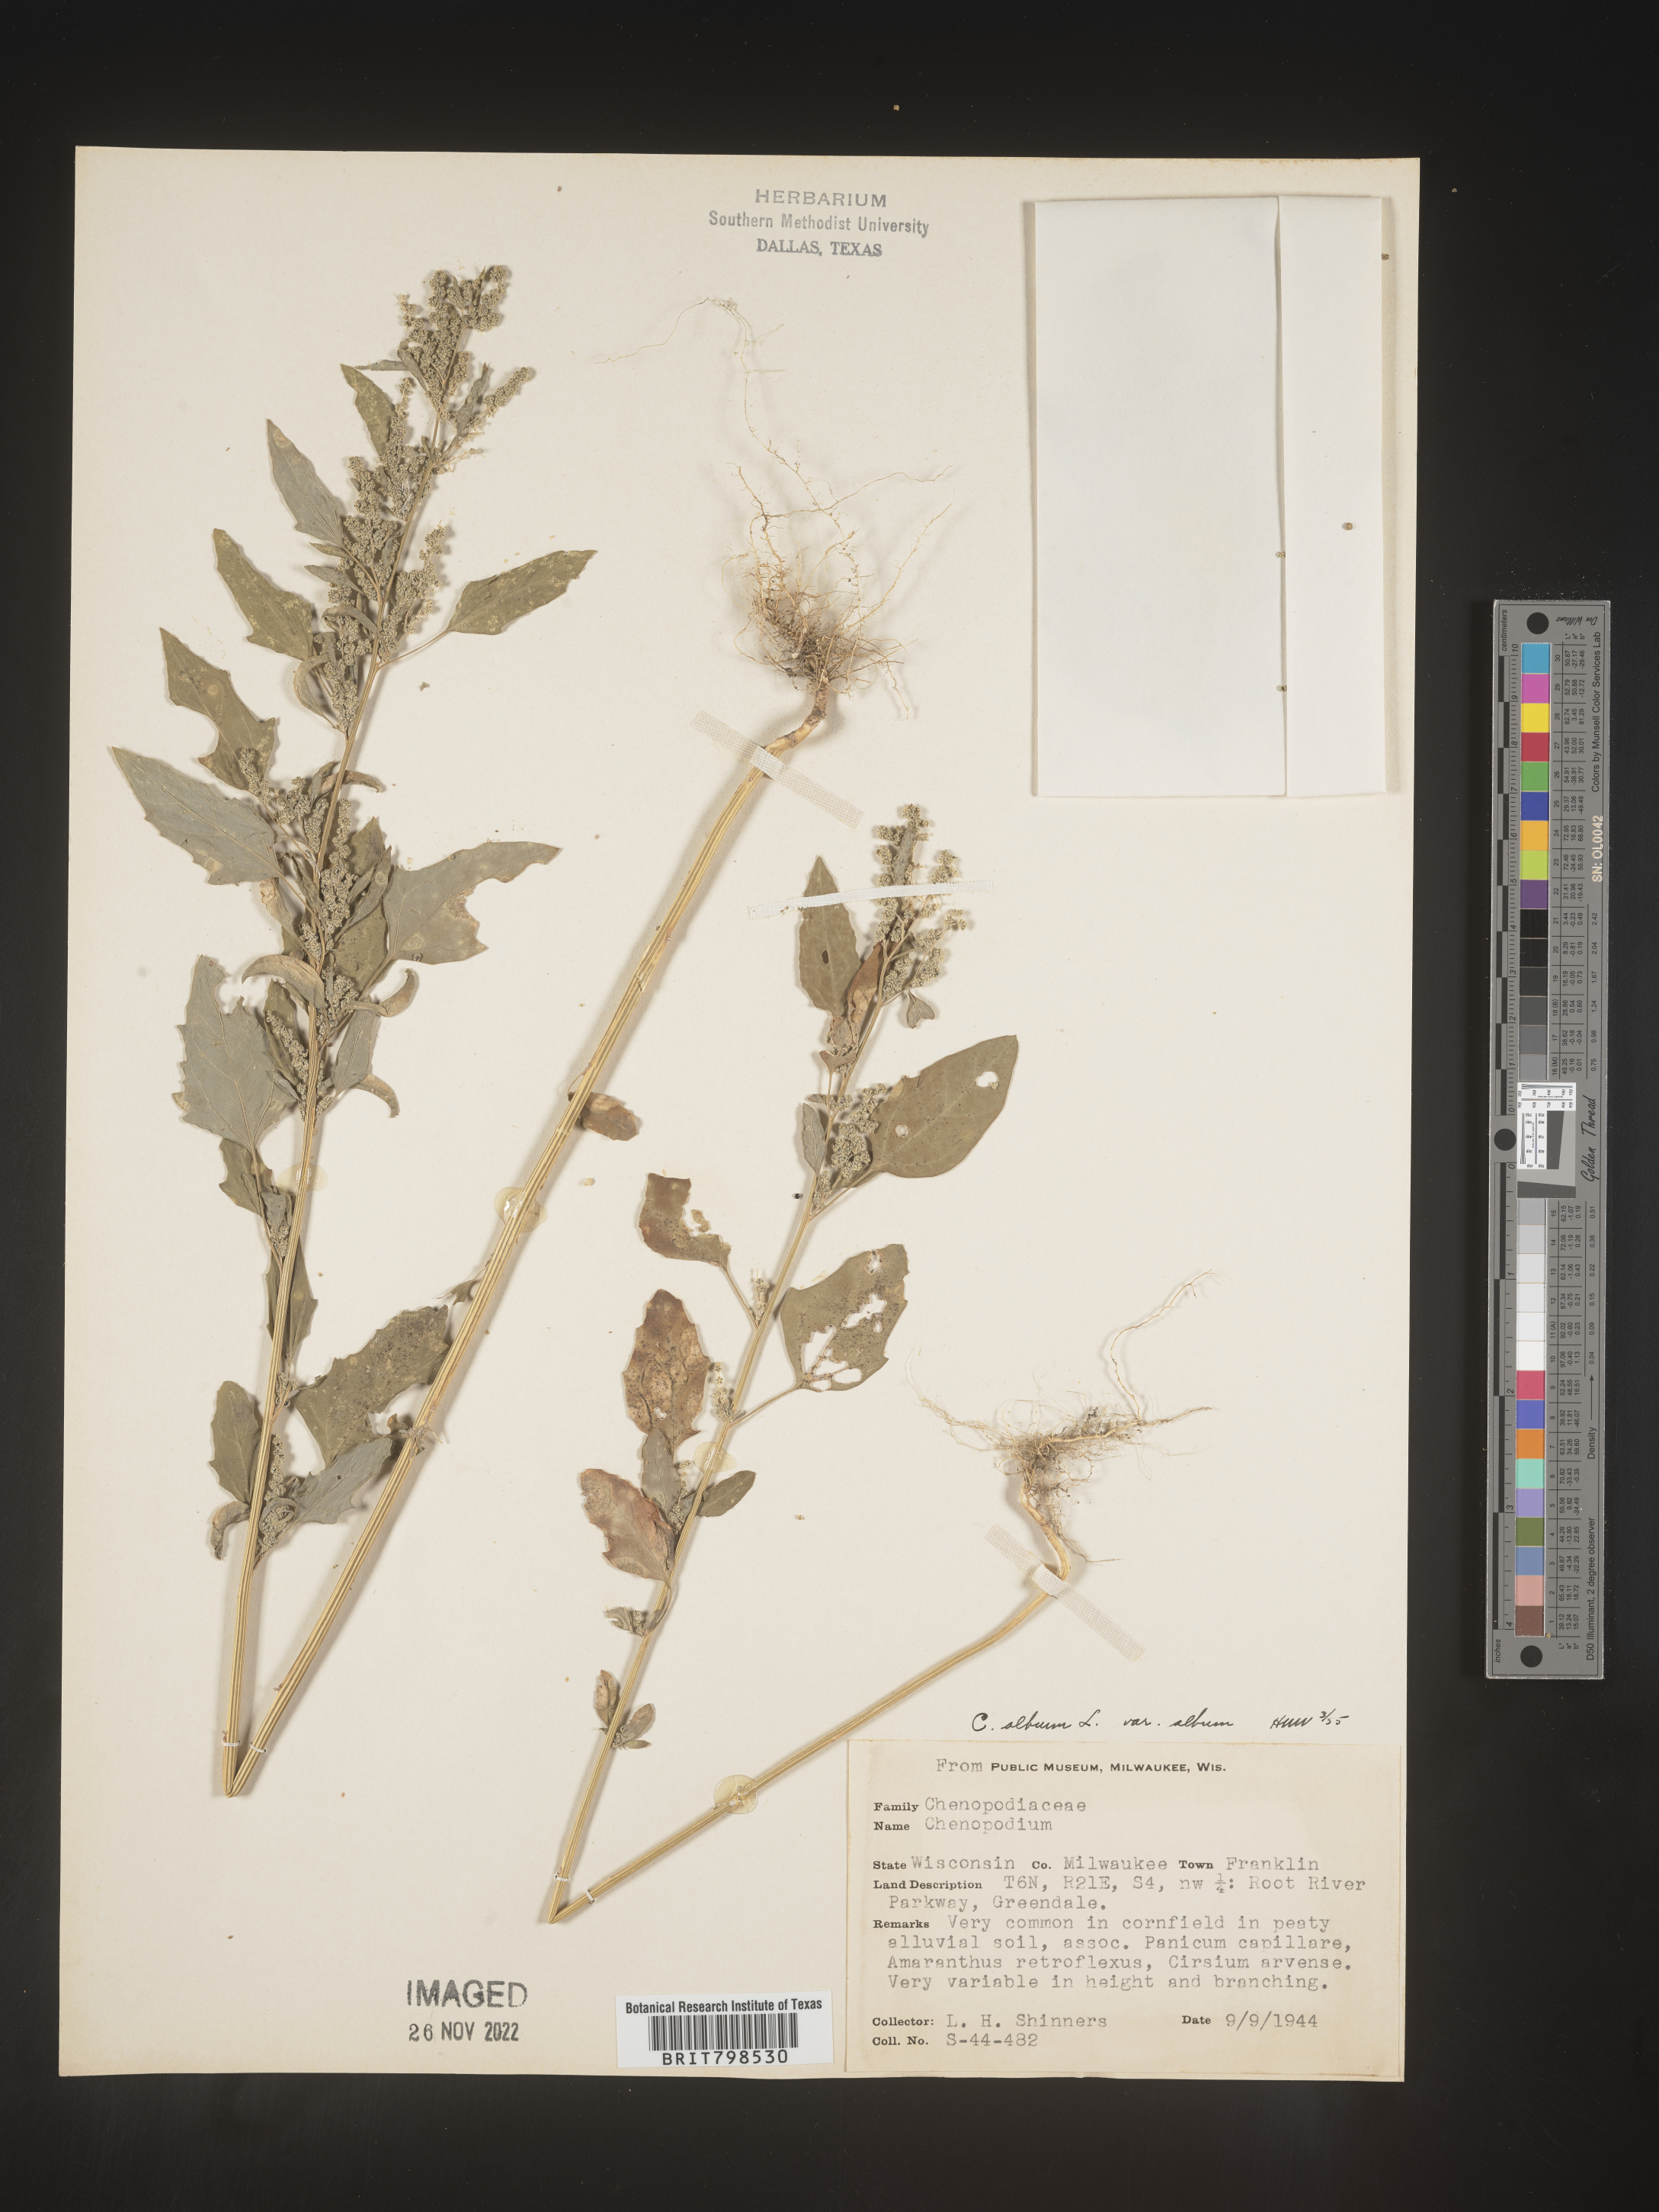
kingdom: Plantae
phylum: Tracheophyta
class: Magnoliopsida
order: Caryophyllales
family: Amaranthaceae
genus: Chenopodium
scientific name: Chenopodium album
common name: Fat-hen
